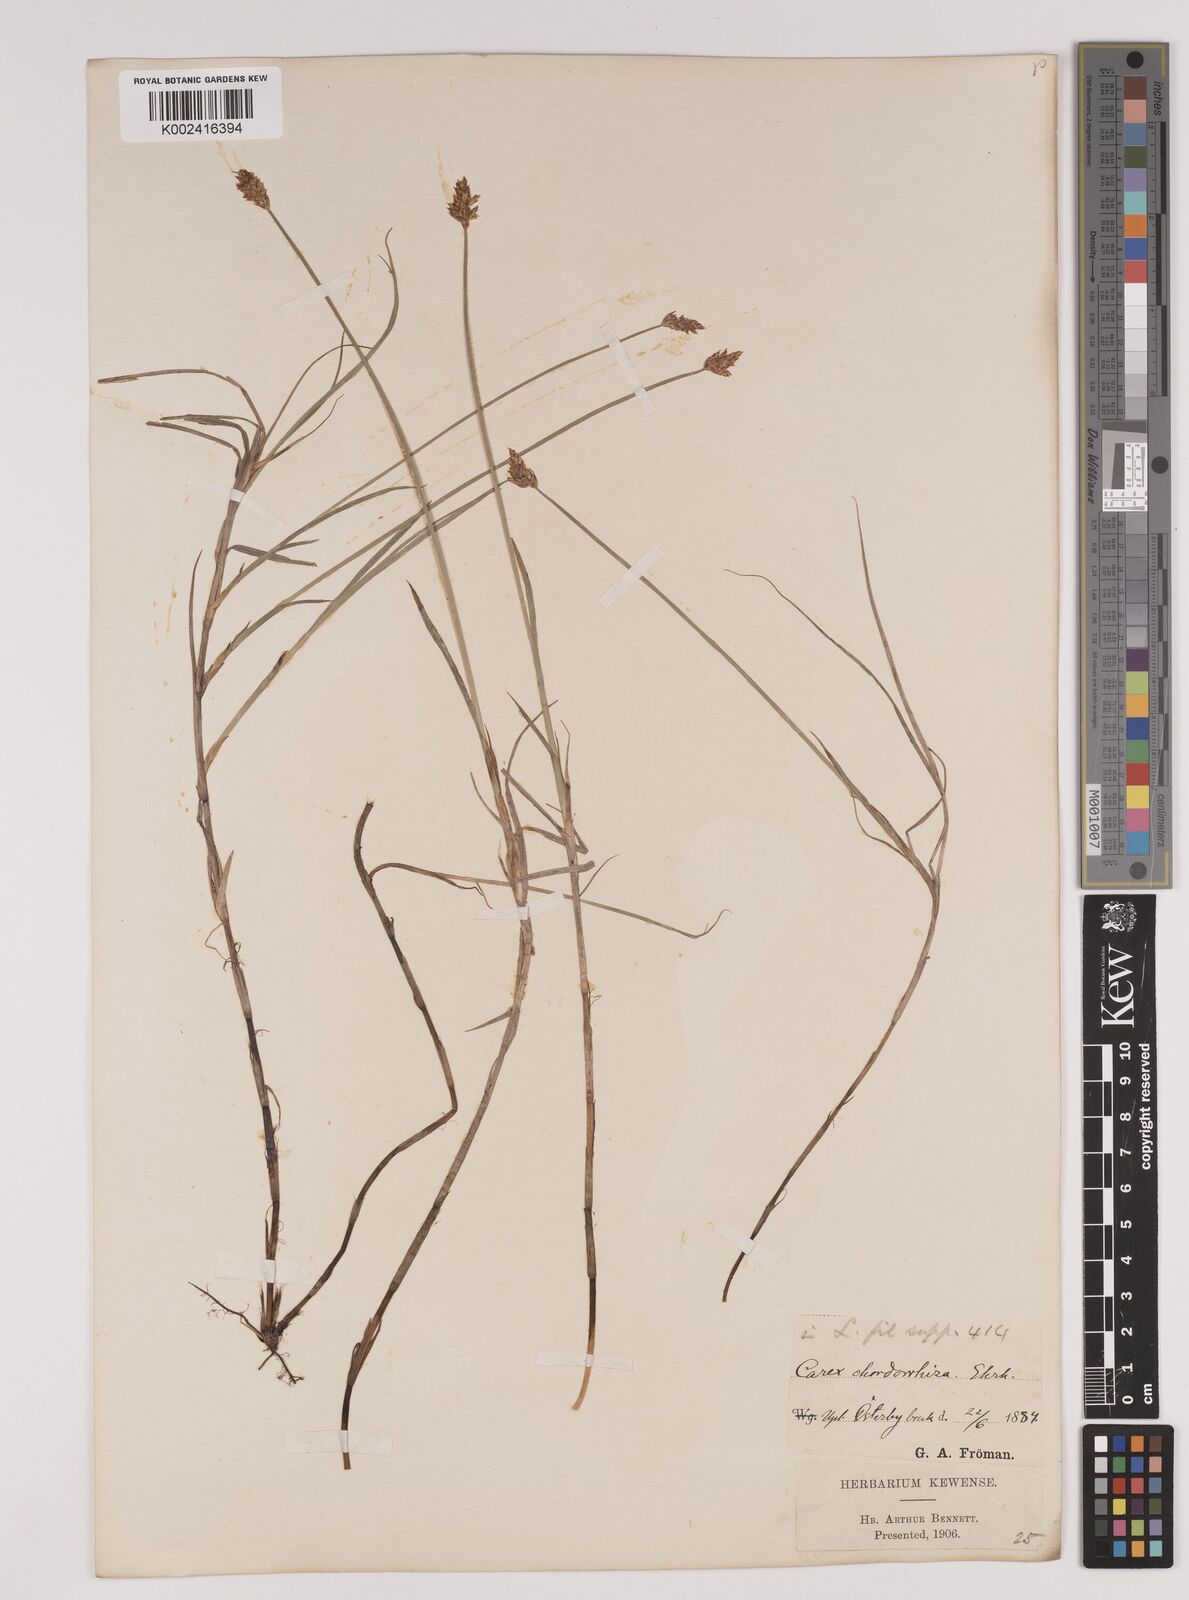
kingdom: Plantae
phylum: Tracheophyta
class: Liliopsida
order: Poales
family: Cyperaceae
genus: Carex
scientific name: Carex chordorrhiza
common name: String sedge
